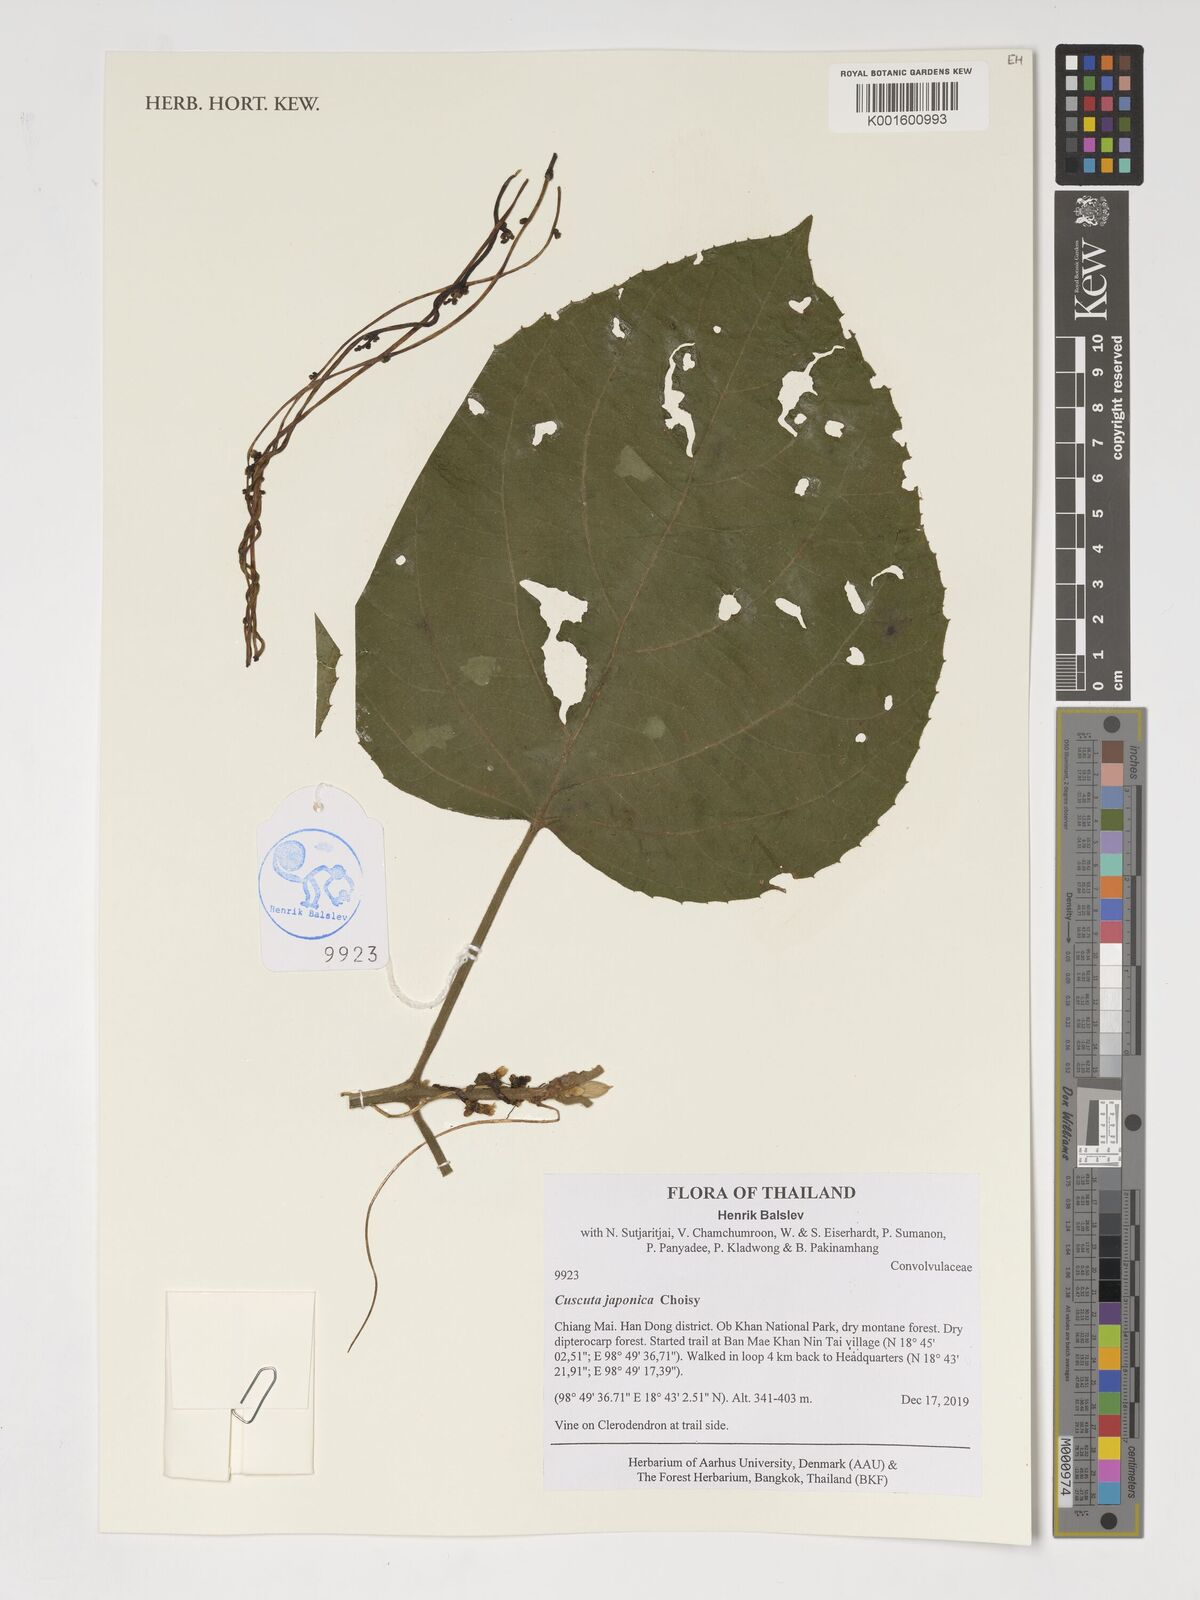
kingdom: Plantae
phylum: Tracheophyta
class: Magnoliopsida
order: Solanales
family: Convolvulaceae
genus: Cuscuta
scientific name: Cuscuta japonica
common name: Japanese dodder
